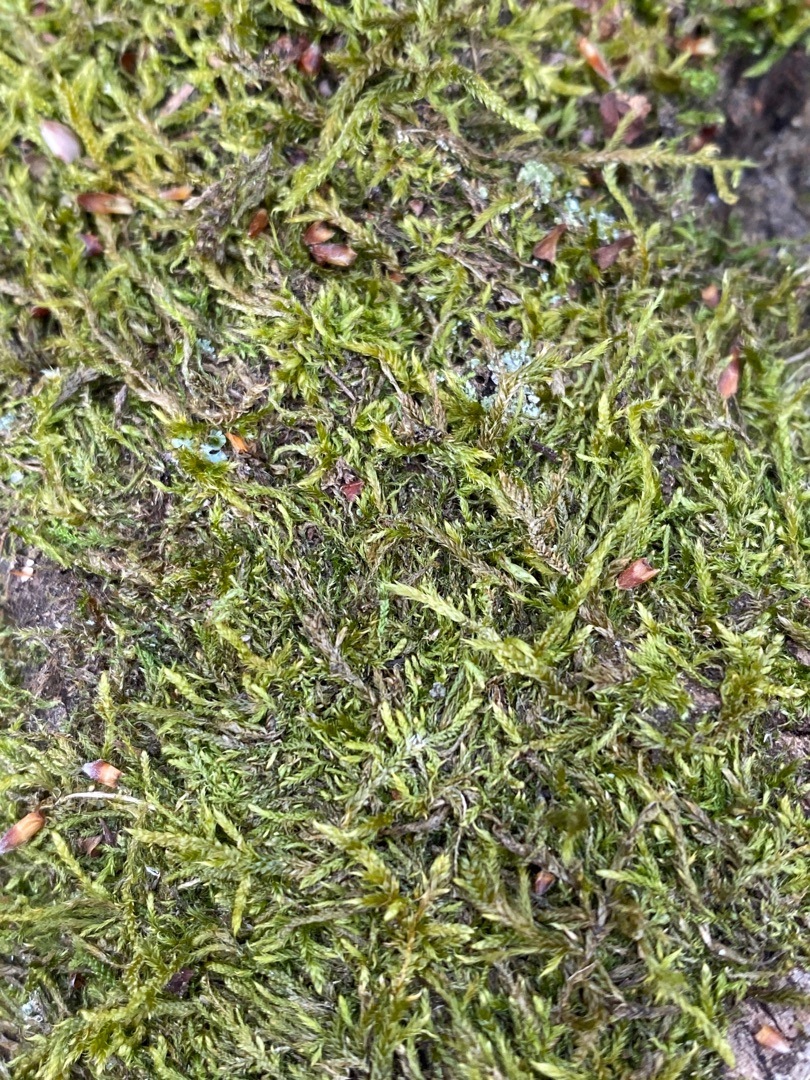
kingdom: Plantae
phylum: Bryophyta
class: Bryopsida
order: Hypnales
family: Hypnaceae
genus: Hypnum
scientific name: Hypnum
